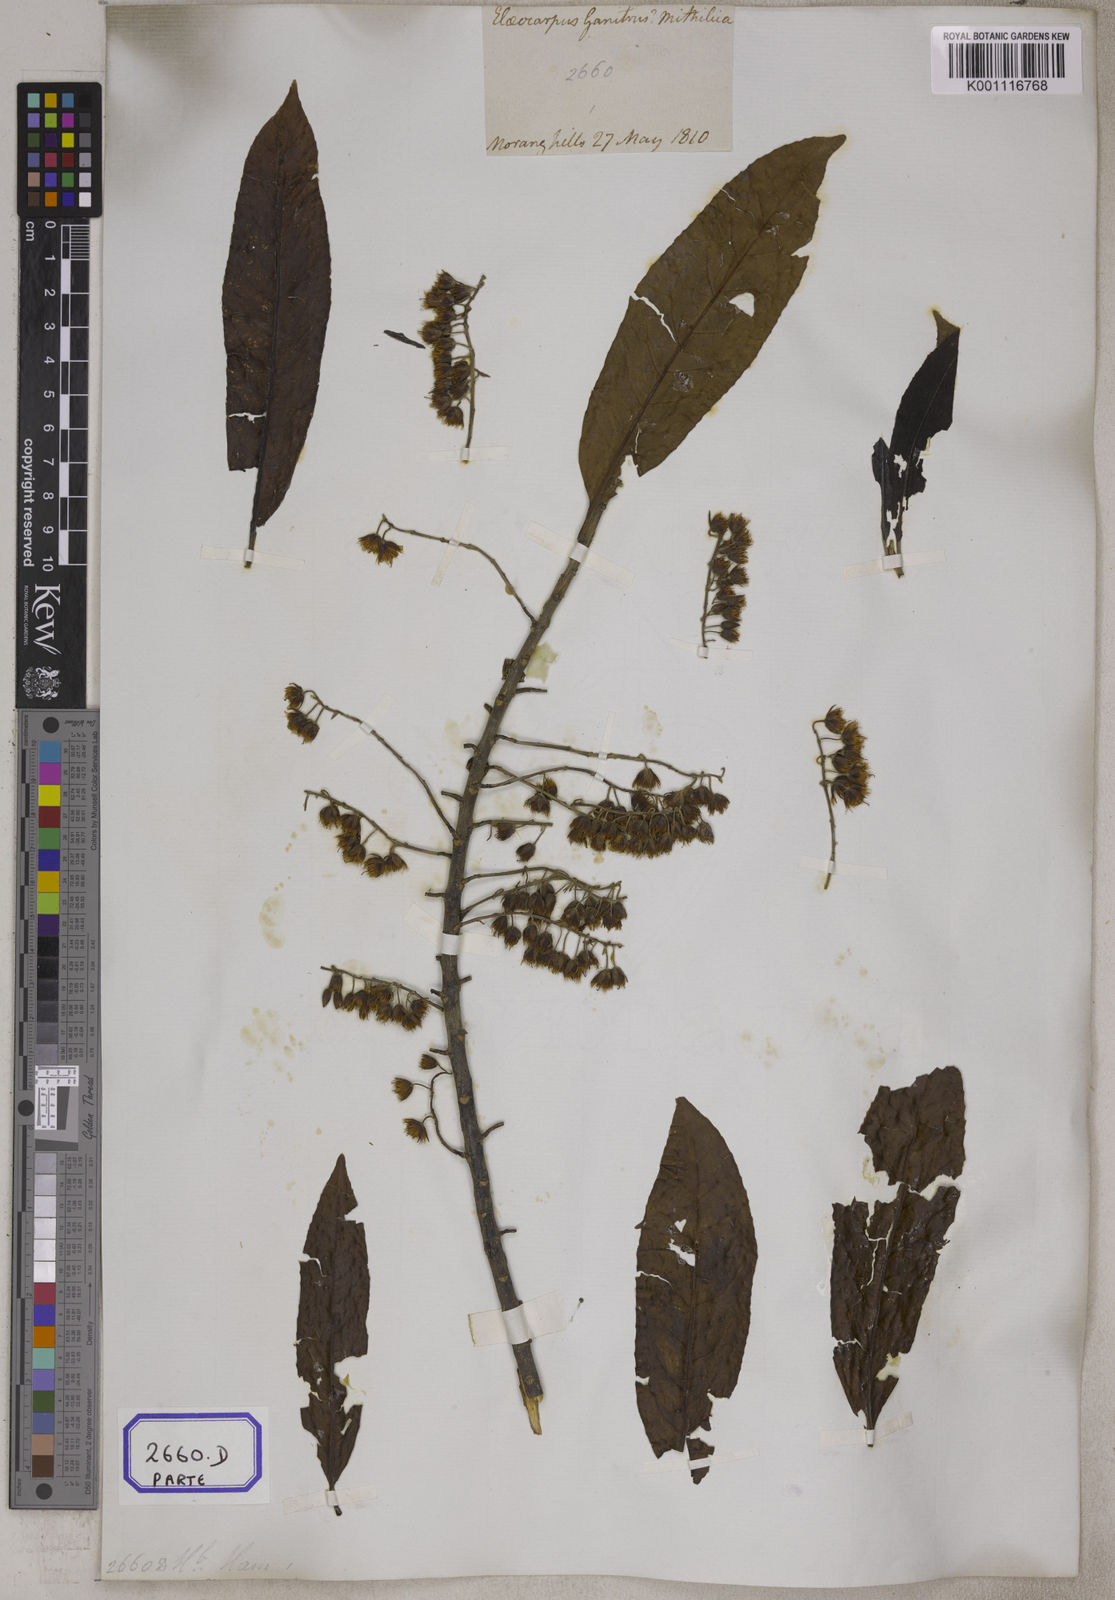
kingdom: Plantae
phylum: Tracheophyta
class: Magnoliopsida
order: Oxalidales
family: Elaeocarpaceae
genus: Elaeocarpus
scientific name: Elaeocarpus
